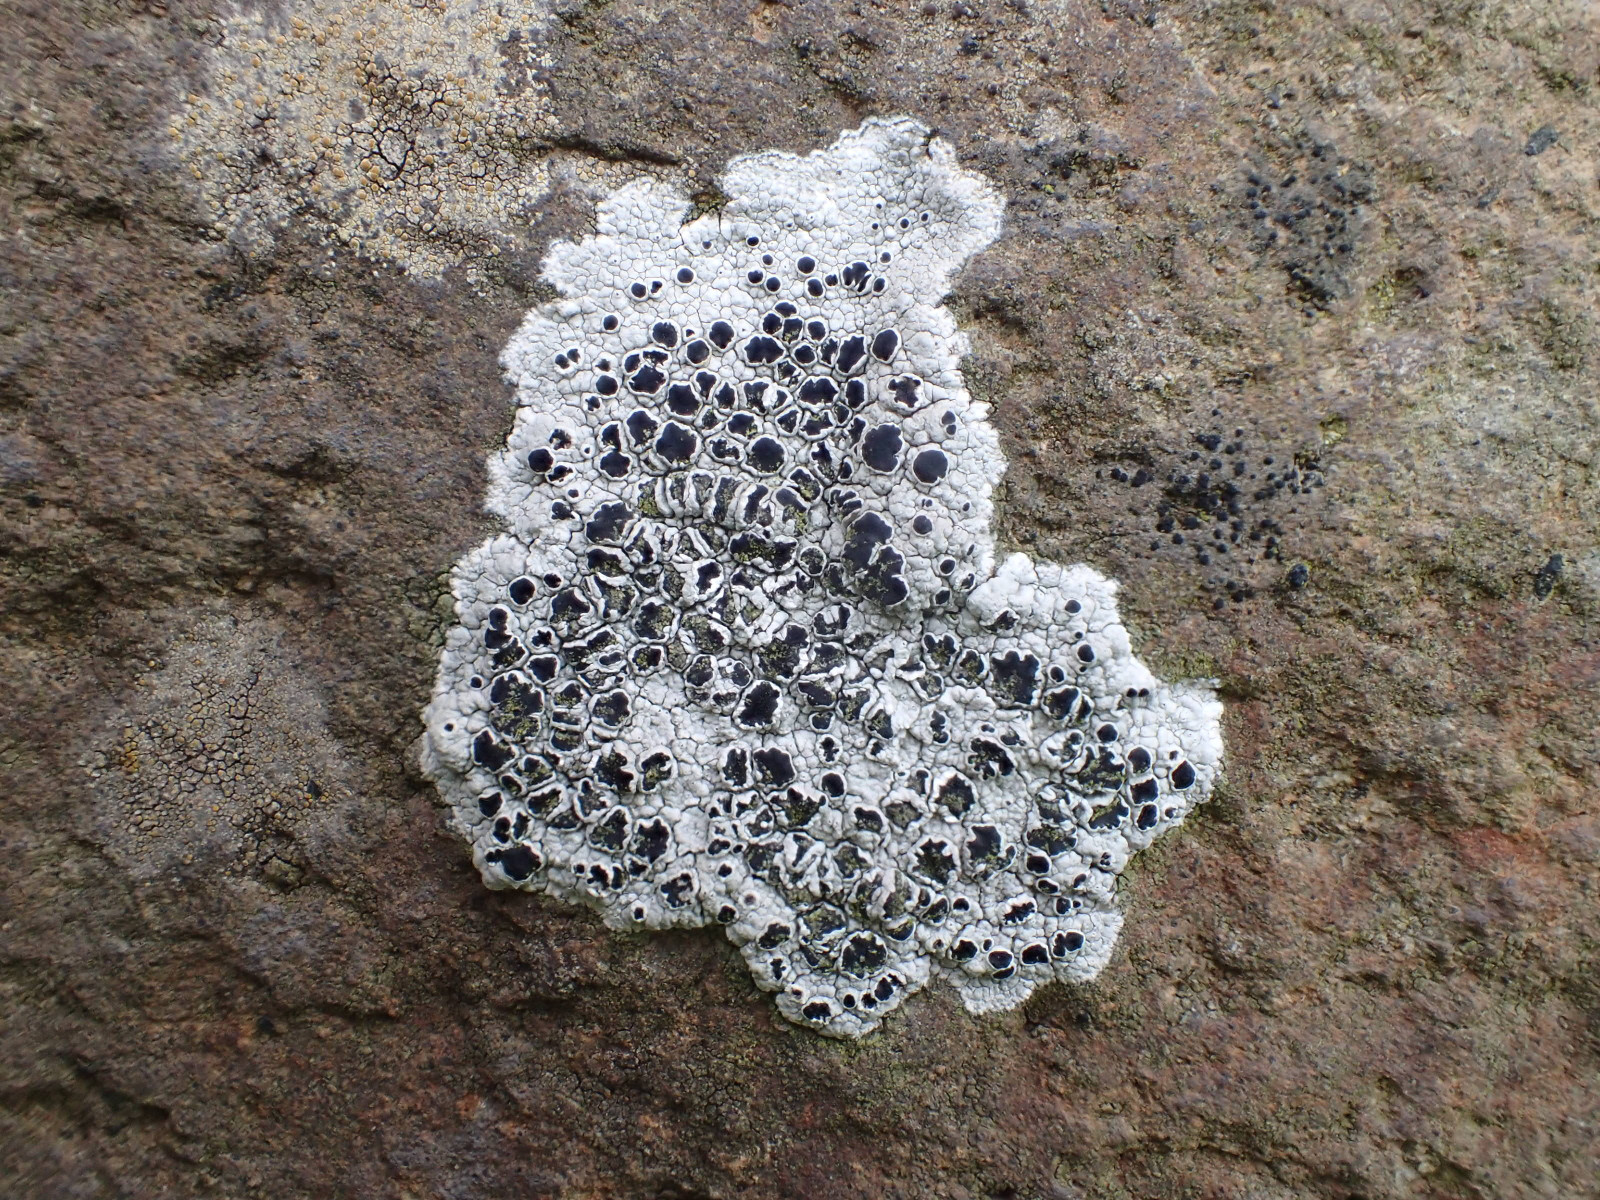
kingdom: Fungi
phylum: Ascomycota
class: Lecanoromycetes
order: Lecanorales
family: Tephromelataceae
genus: Tephromela
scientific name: Tephromela atra
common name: sortfrugtet kantskivelav
